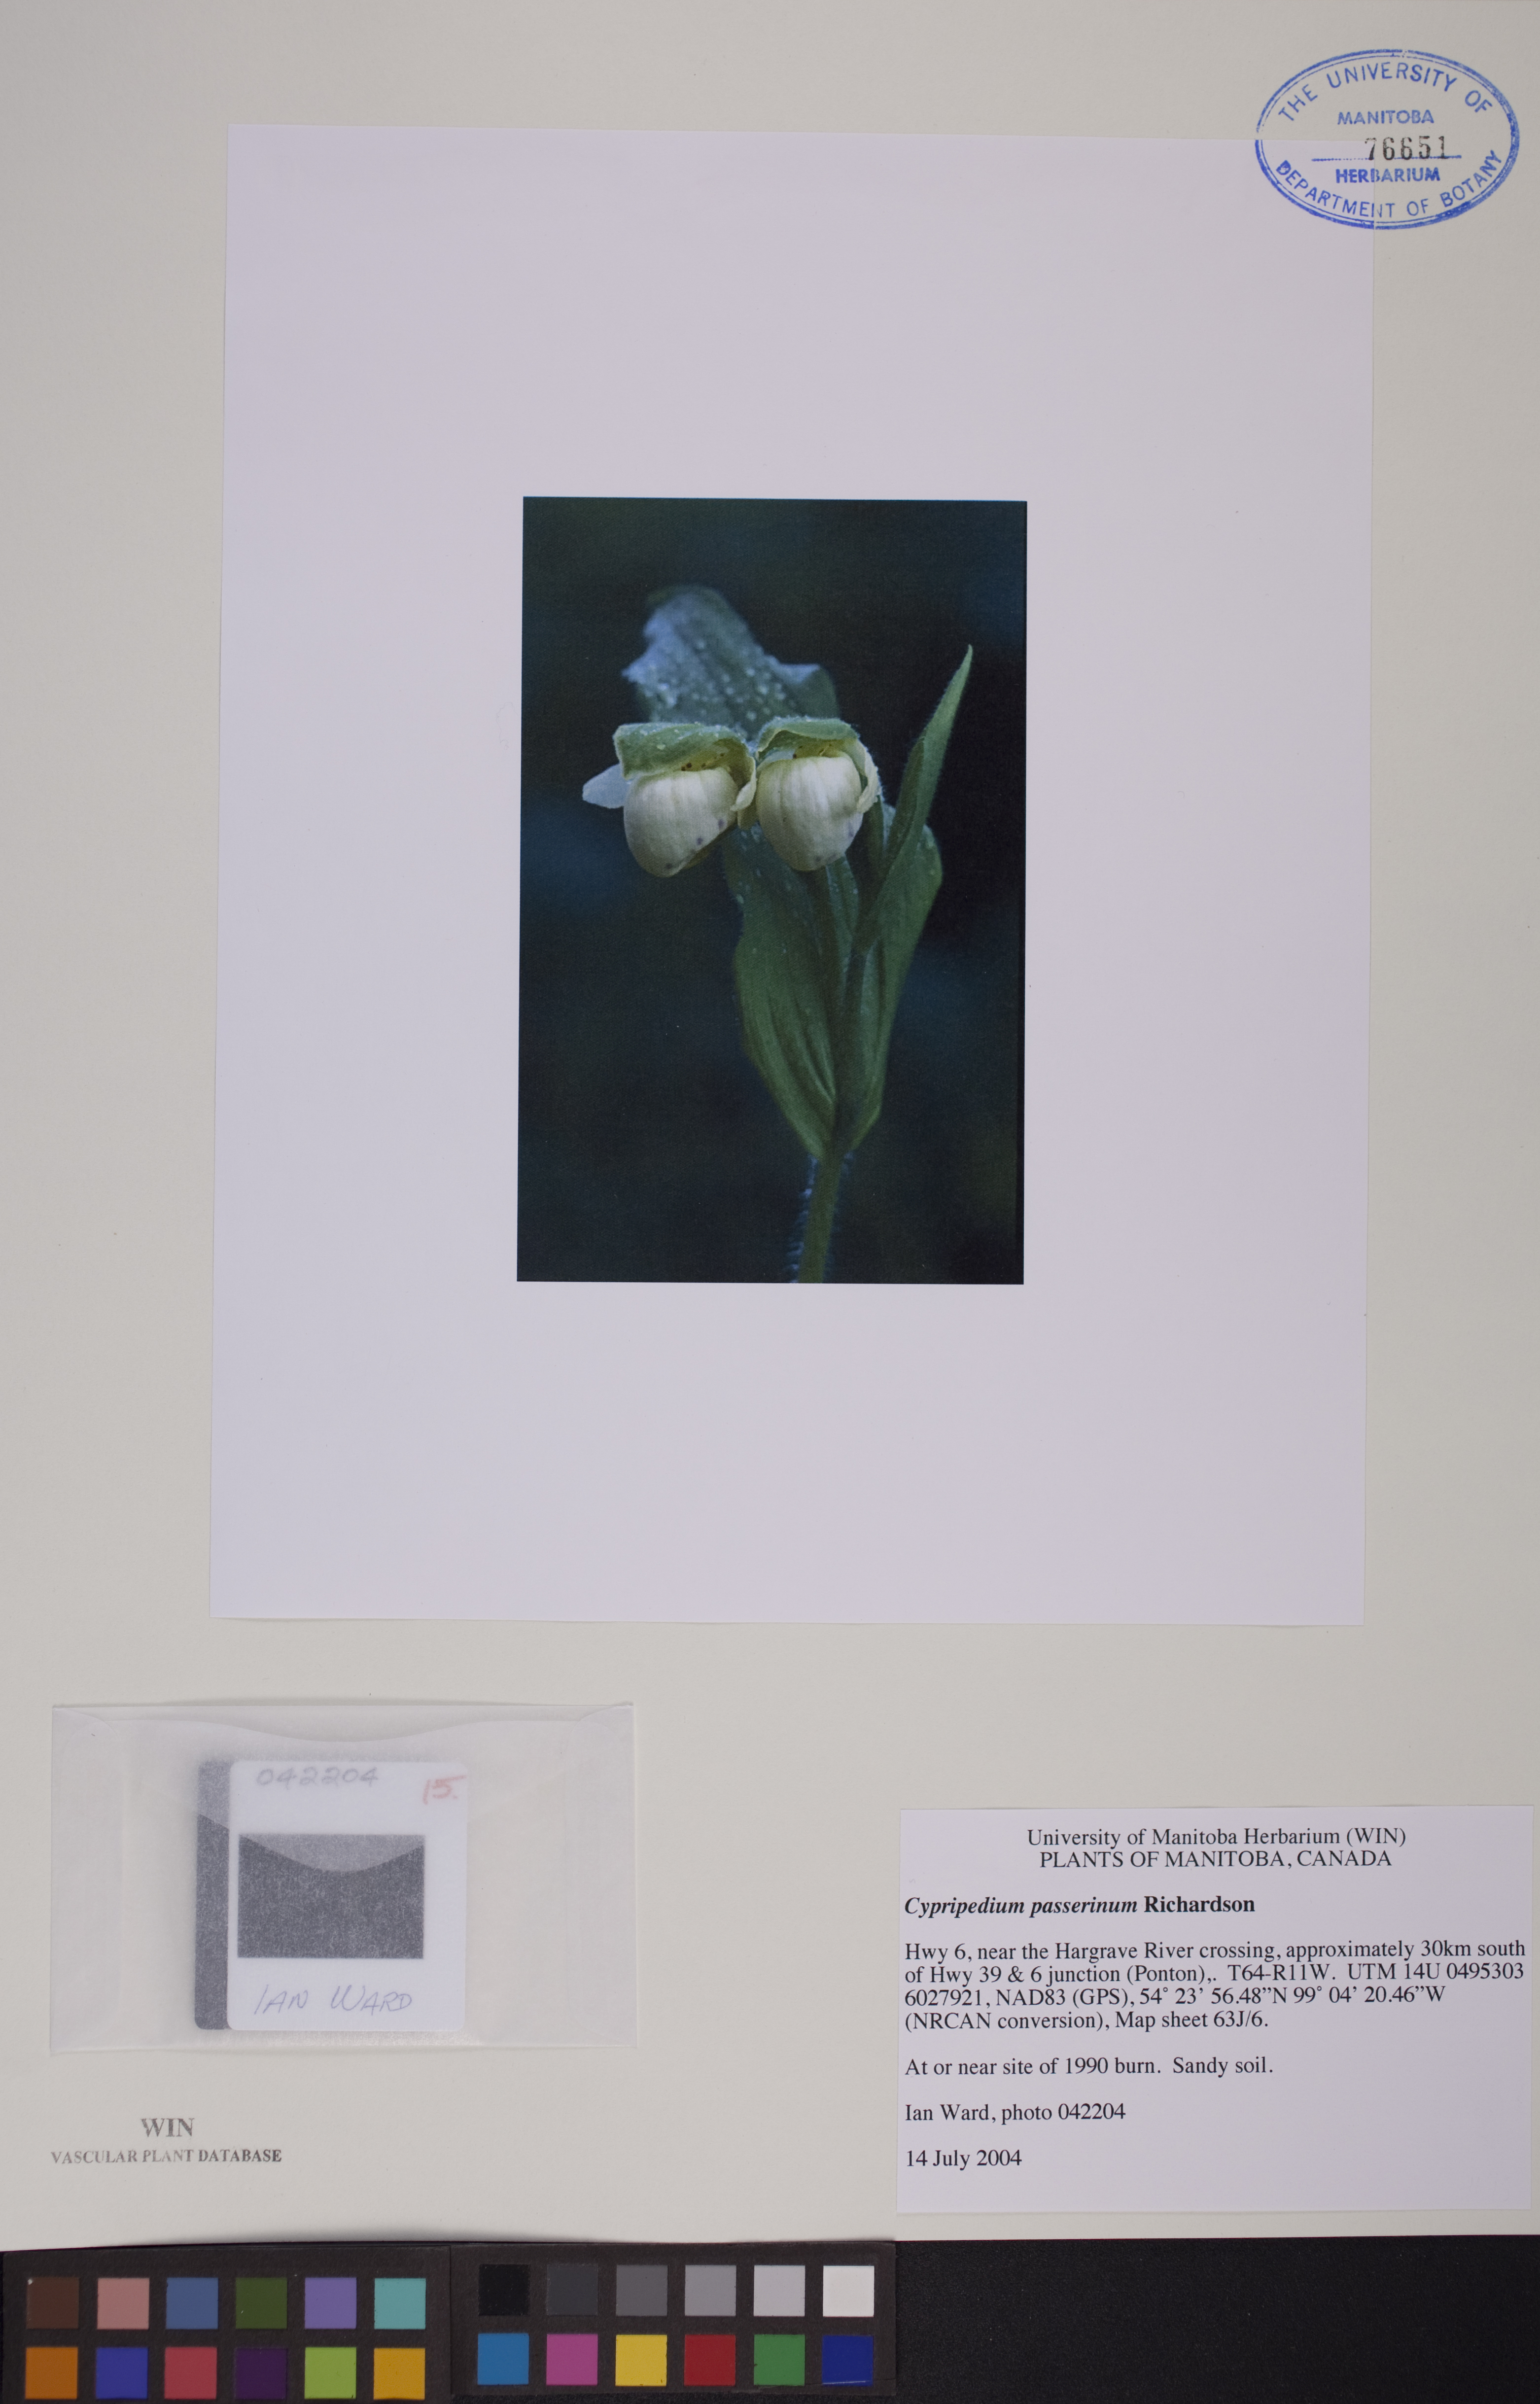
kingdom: Plantae
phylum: Tracheophyta
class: Liliopsida
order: Asparagales
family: Orchidaceae
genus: Cypripedium
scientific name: Cypripedium passerinum
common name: Sparrow's-egg lady's-slipper
